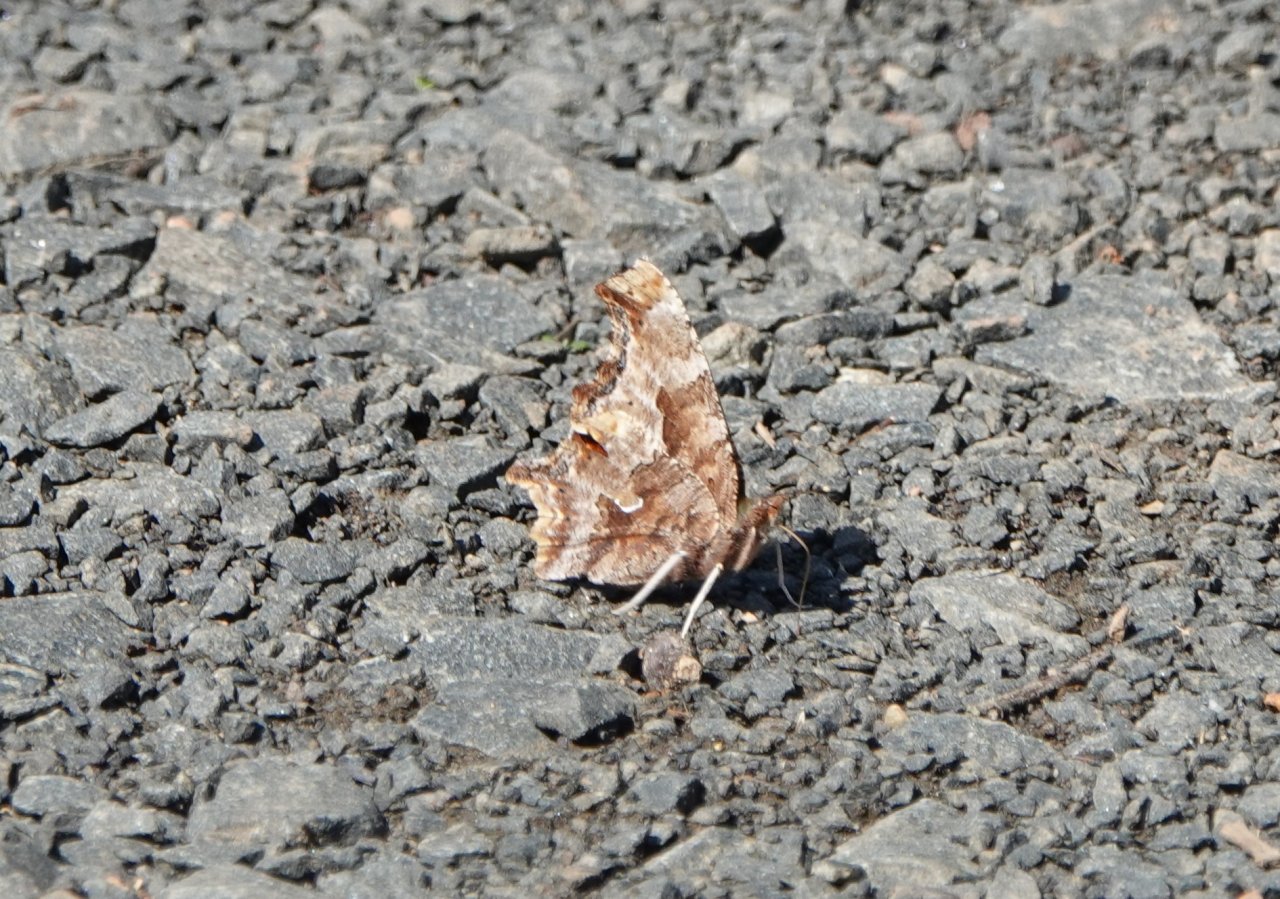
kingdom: Animalia
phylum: Arthropoda
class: Insecta
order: Lepidoptera
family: Nymphalidae
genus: Polygonia
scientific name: Polygonia comma
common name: Eastern Comma
